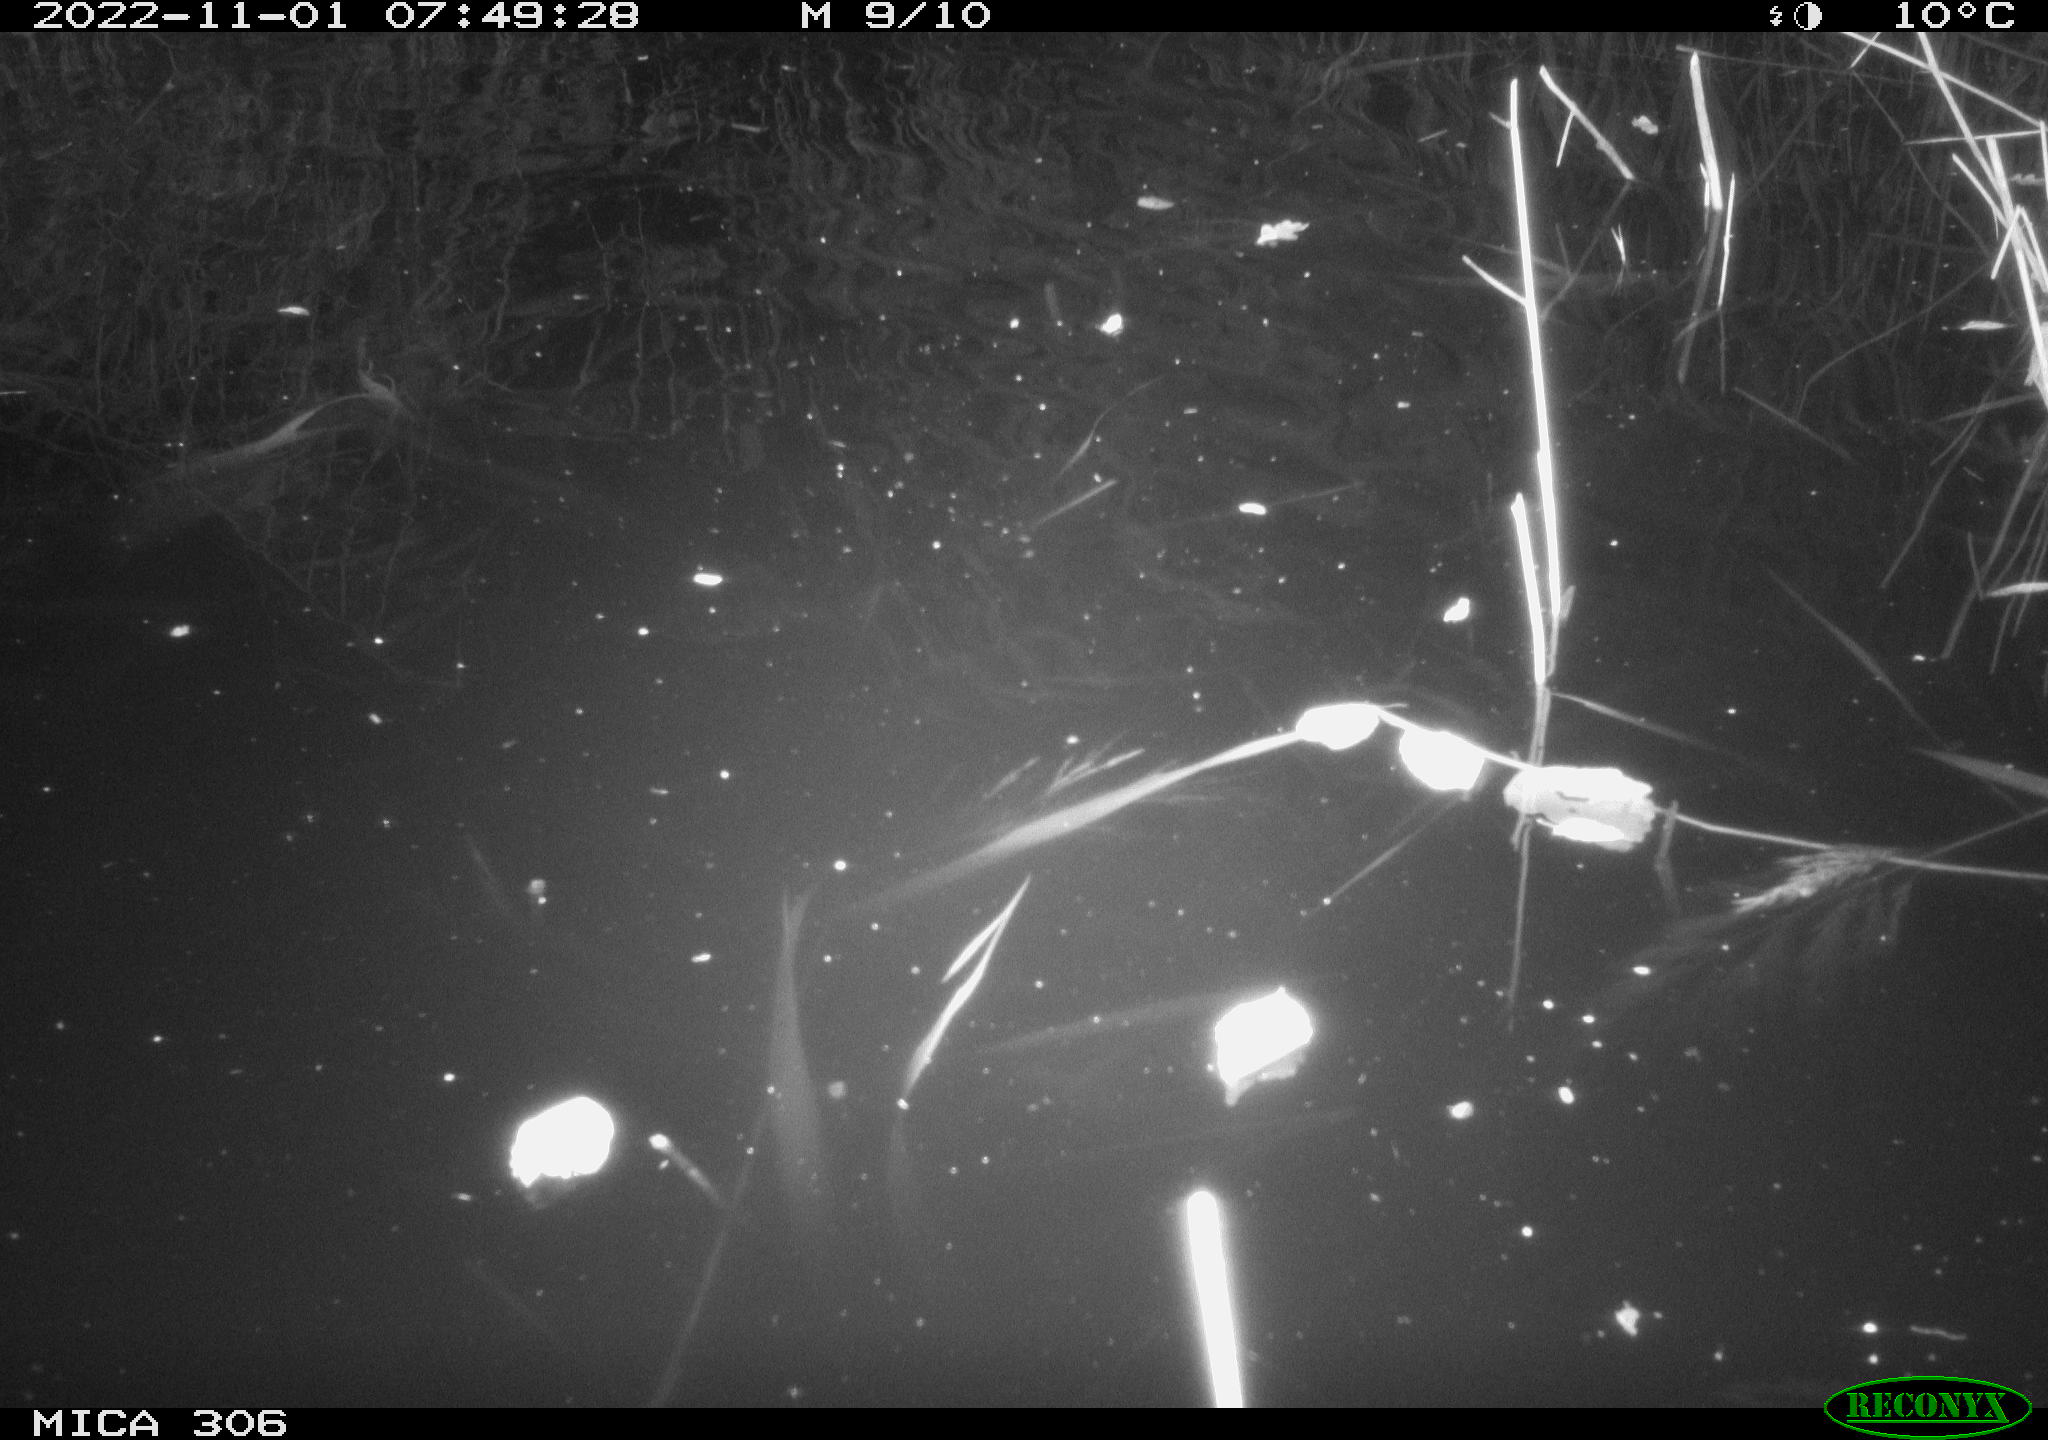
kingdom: Animalia
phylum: Chordata
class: Mammalia
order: Rodentia
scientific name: Rodentia
